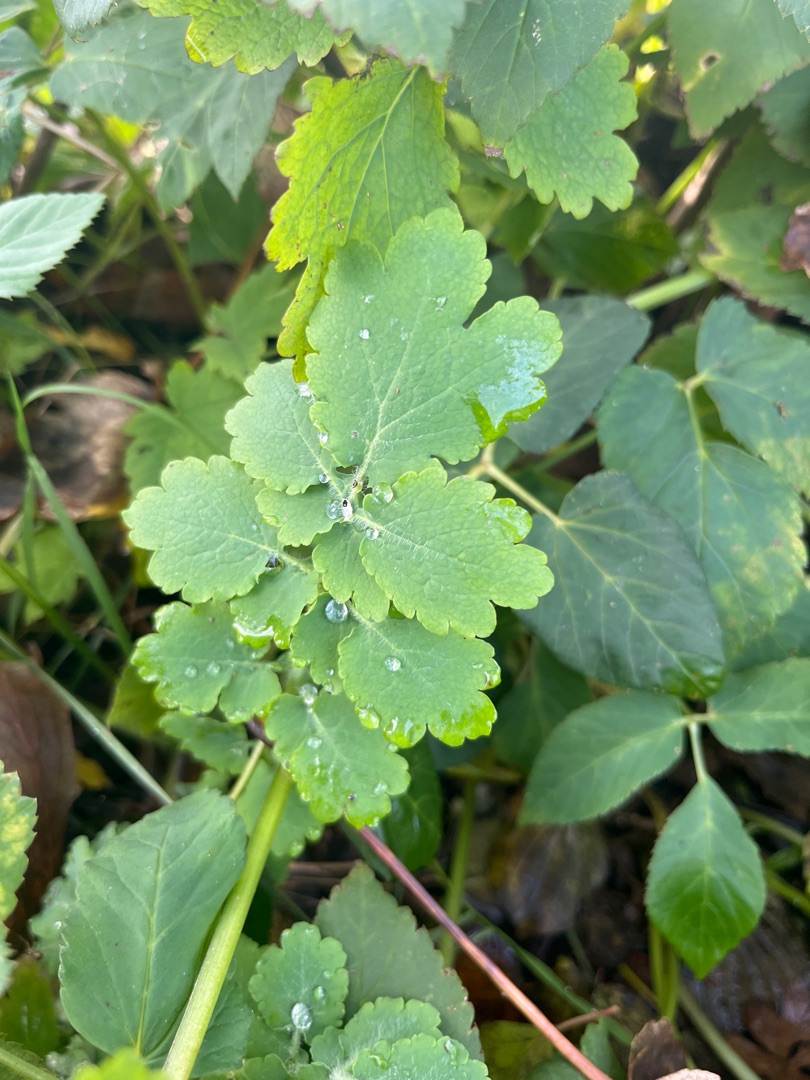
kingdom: Plantae
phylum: Tracheophyta
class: Magnoliopsida
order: Ranunculales
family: Papaveraceae
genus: Chelidonium
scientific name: Chelidonium majus
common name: Svaleurt
